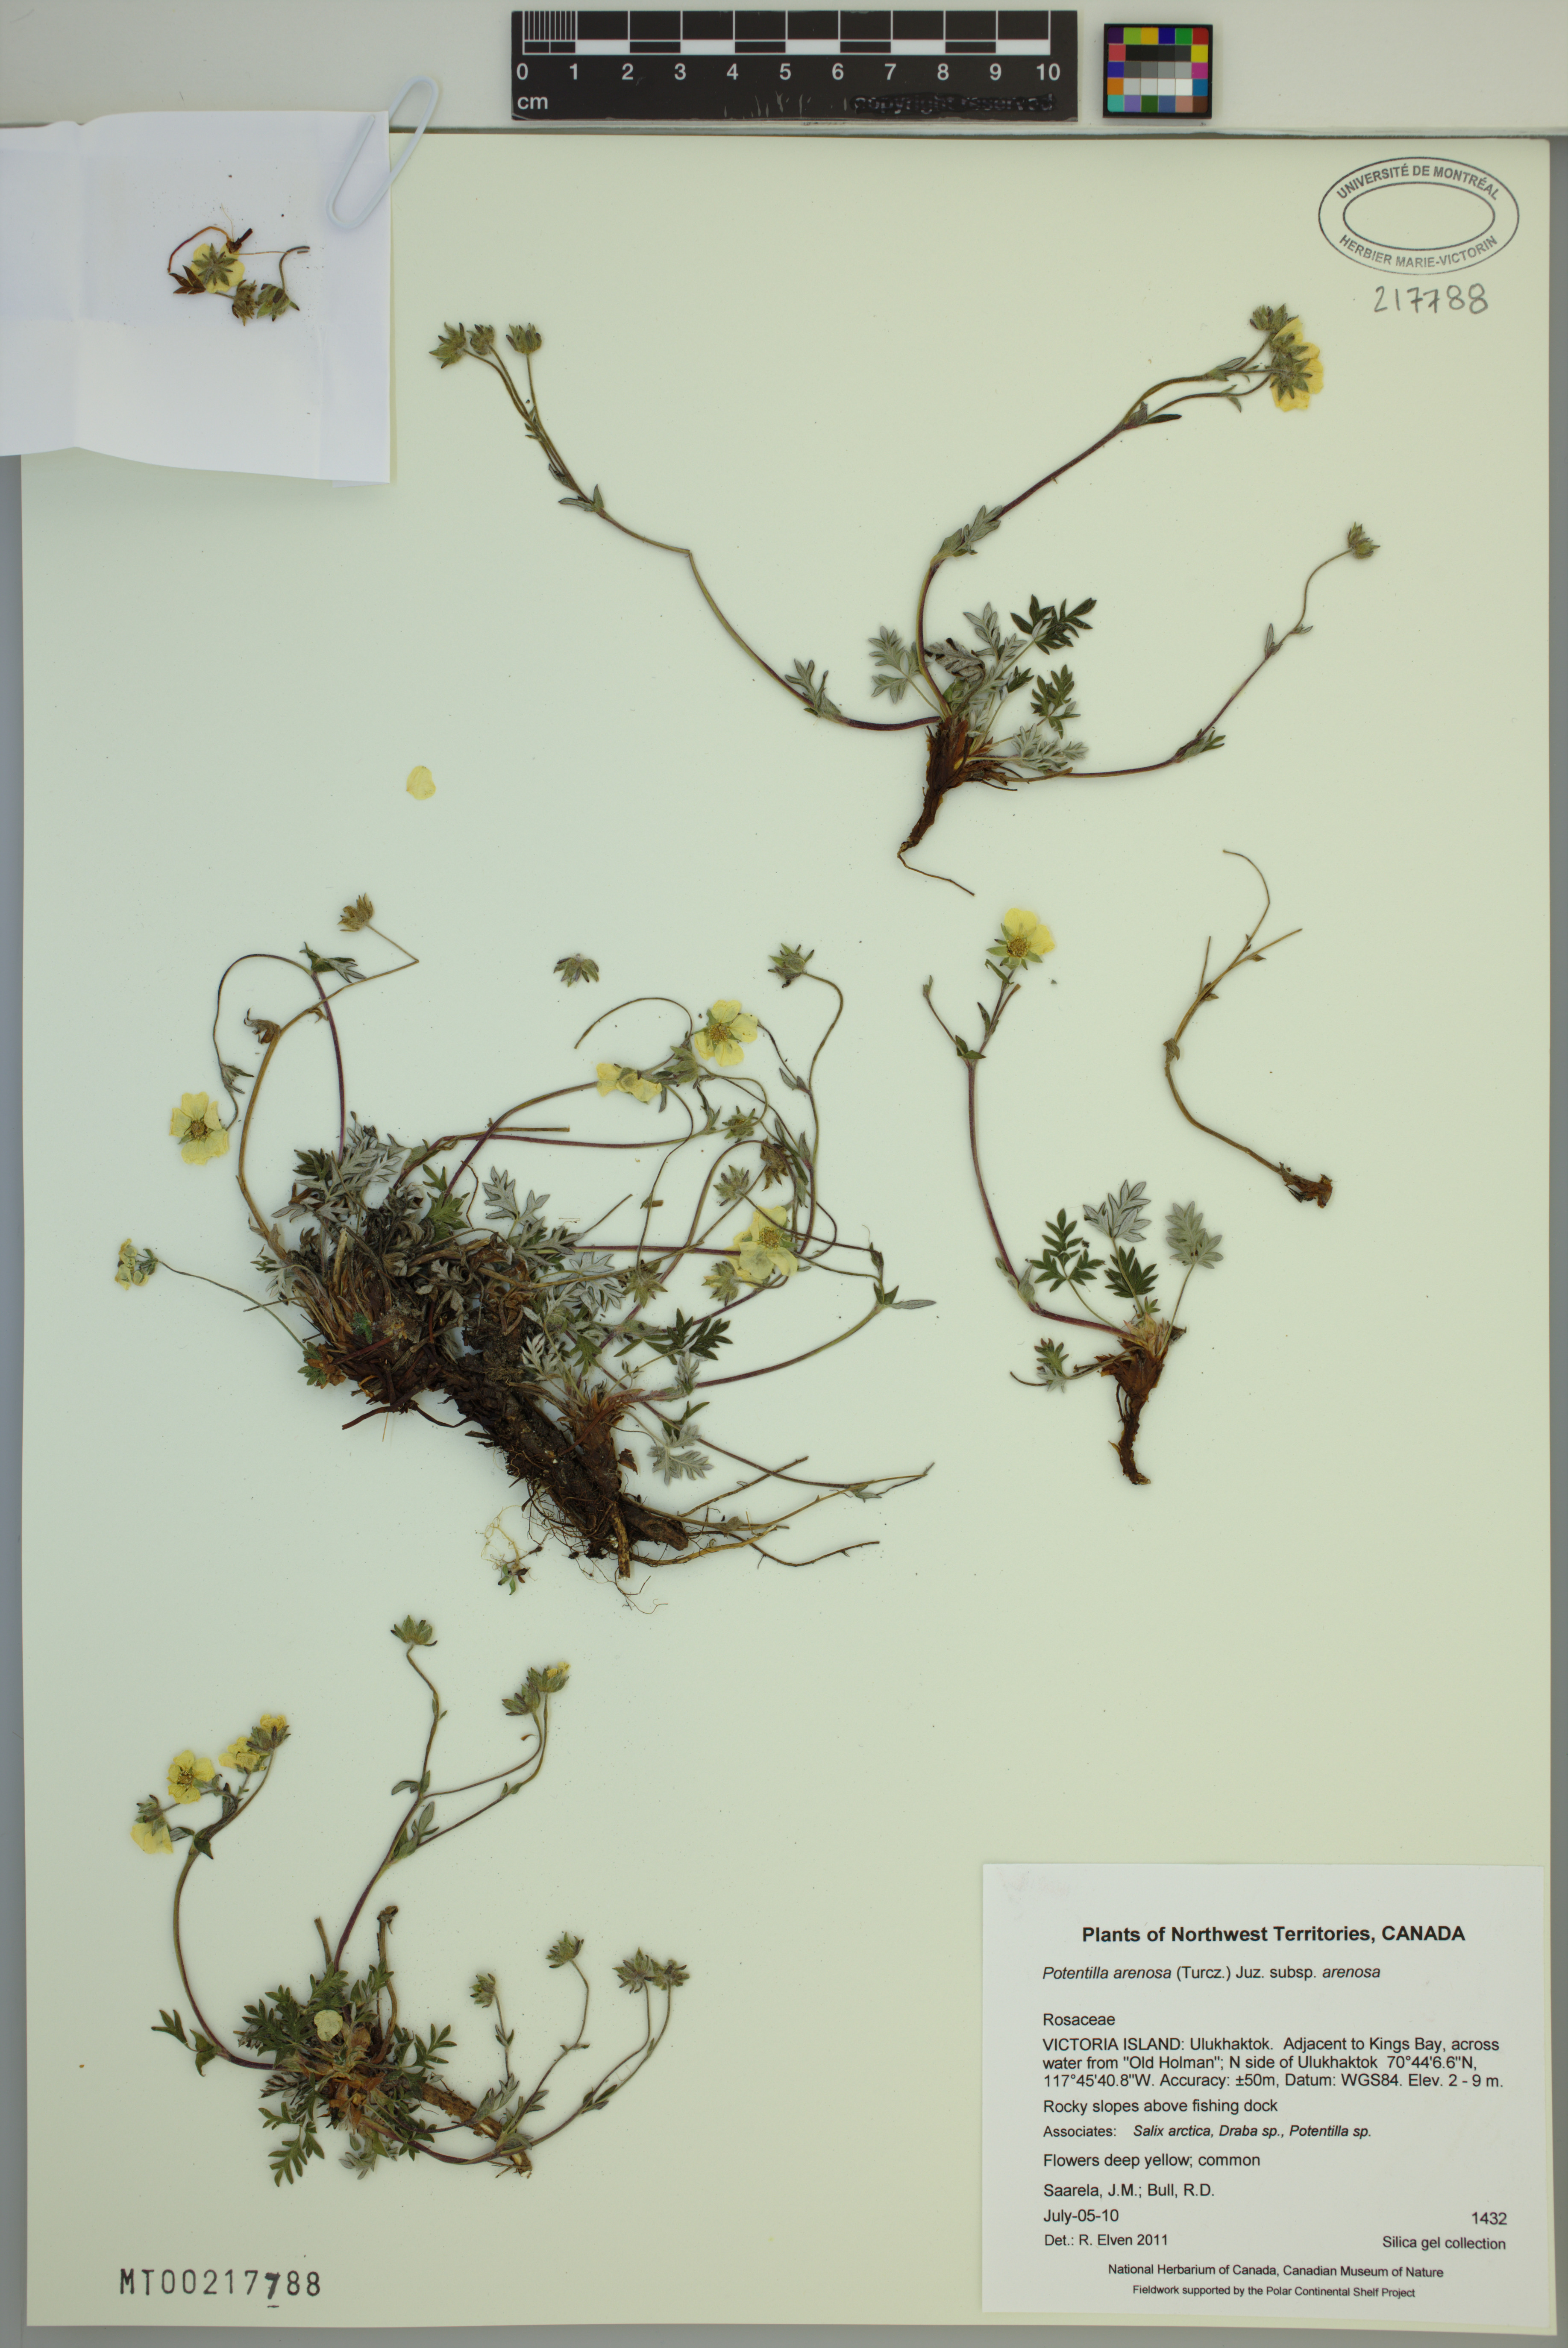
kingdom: Plantae
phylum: Tracheophyta
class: Magnoliopsida
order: Rosales
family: Rosaceae
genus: Potentilla
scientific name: Potentilla arenosa
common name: Bluff cinquefoil
